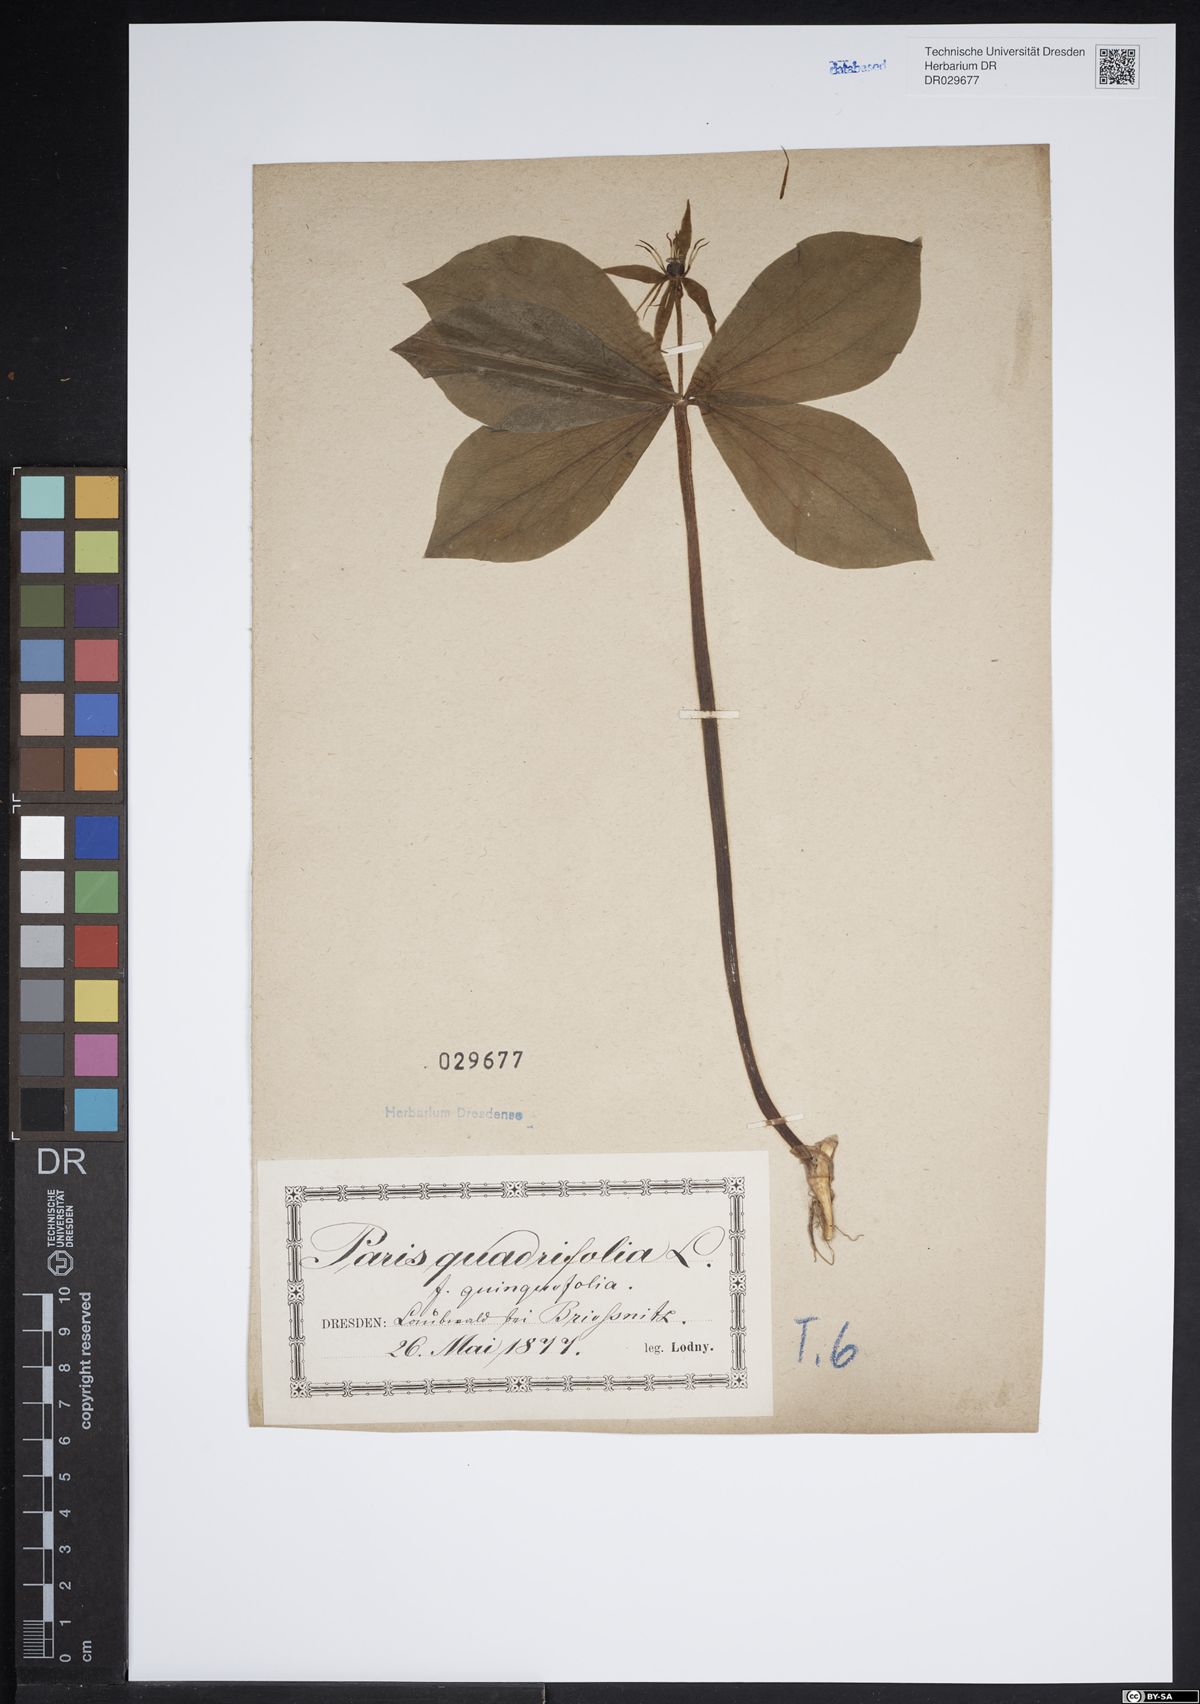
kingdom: Plantae
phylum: Tracheophyta
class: Liliopsida
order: Liliales
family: Melanthiaceae
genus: Paris
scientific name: Paris quadrifolia
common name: Herb-paris
